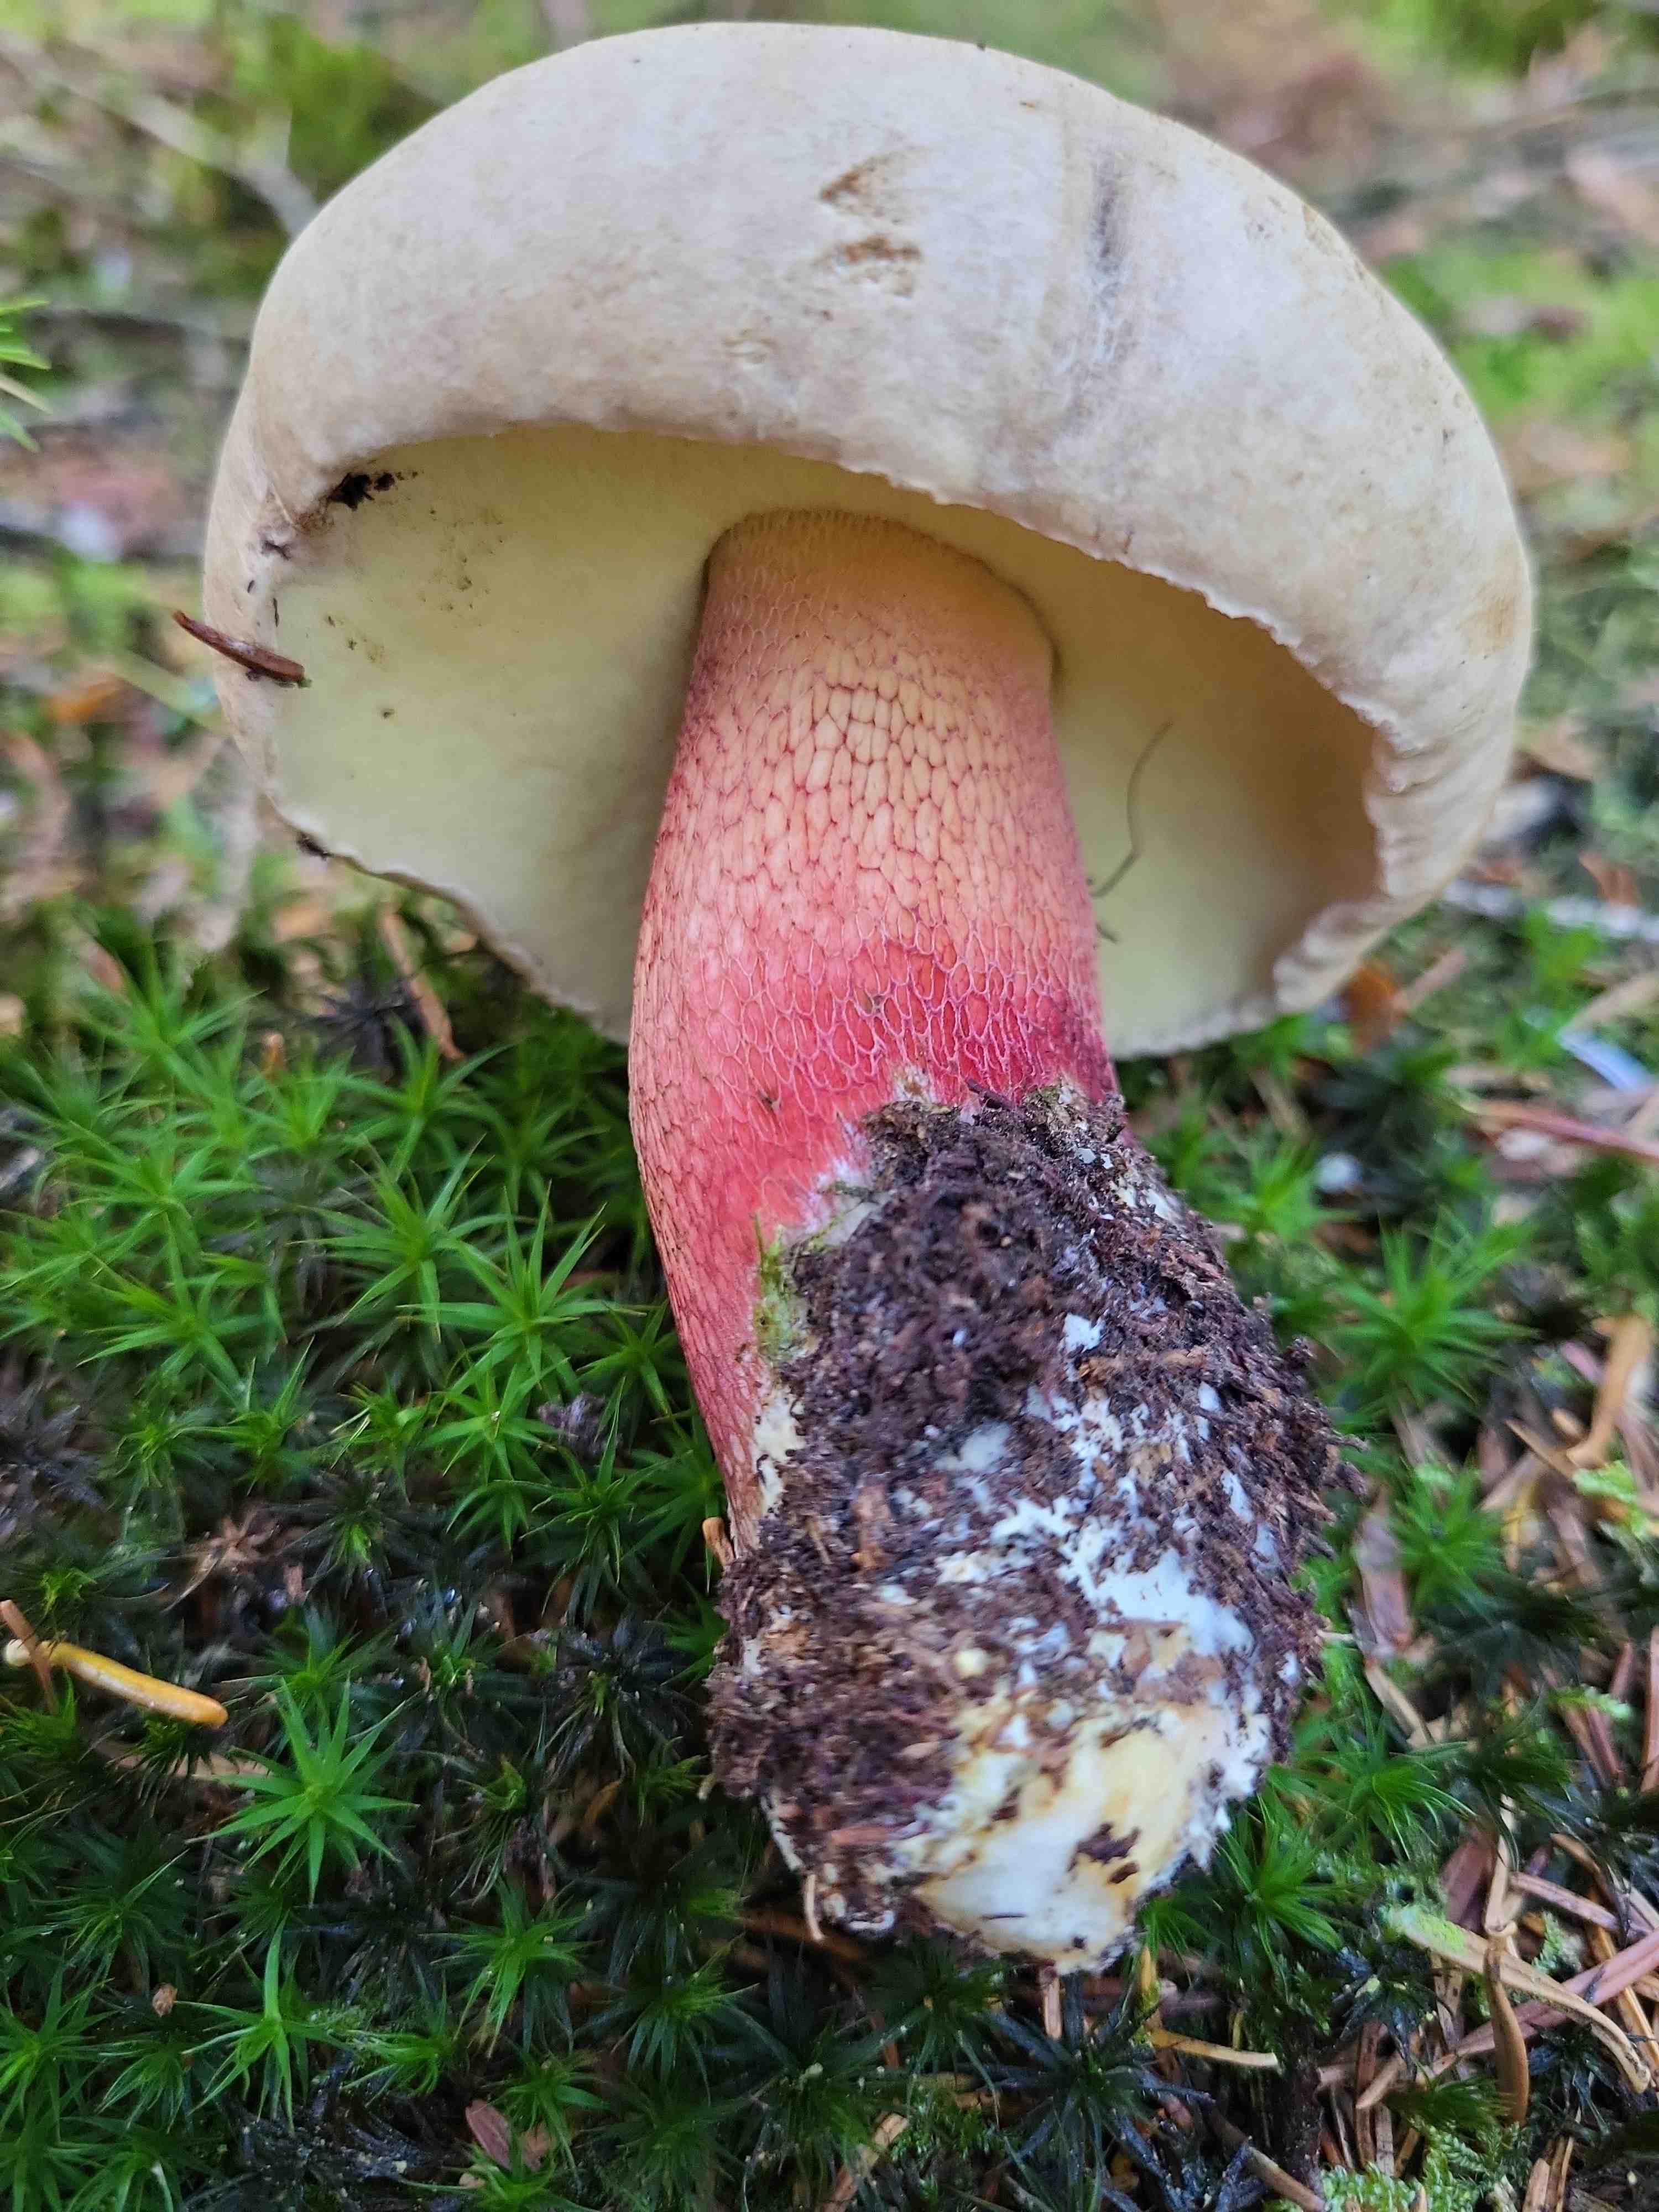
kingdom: Fungi
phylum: Basidiomycota
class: Agaricomycetes
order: Boletales
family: Boletaceae
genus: Caloboletus
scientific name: Caloboletus calopus
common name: skønfodet rørhat
